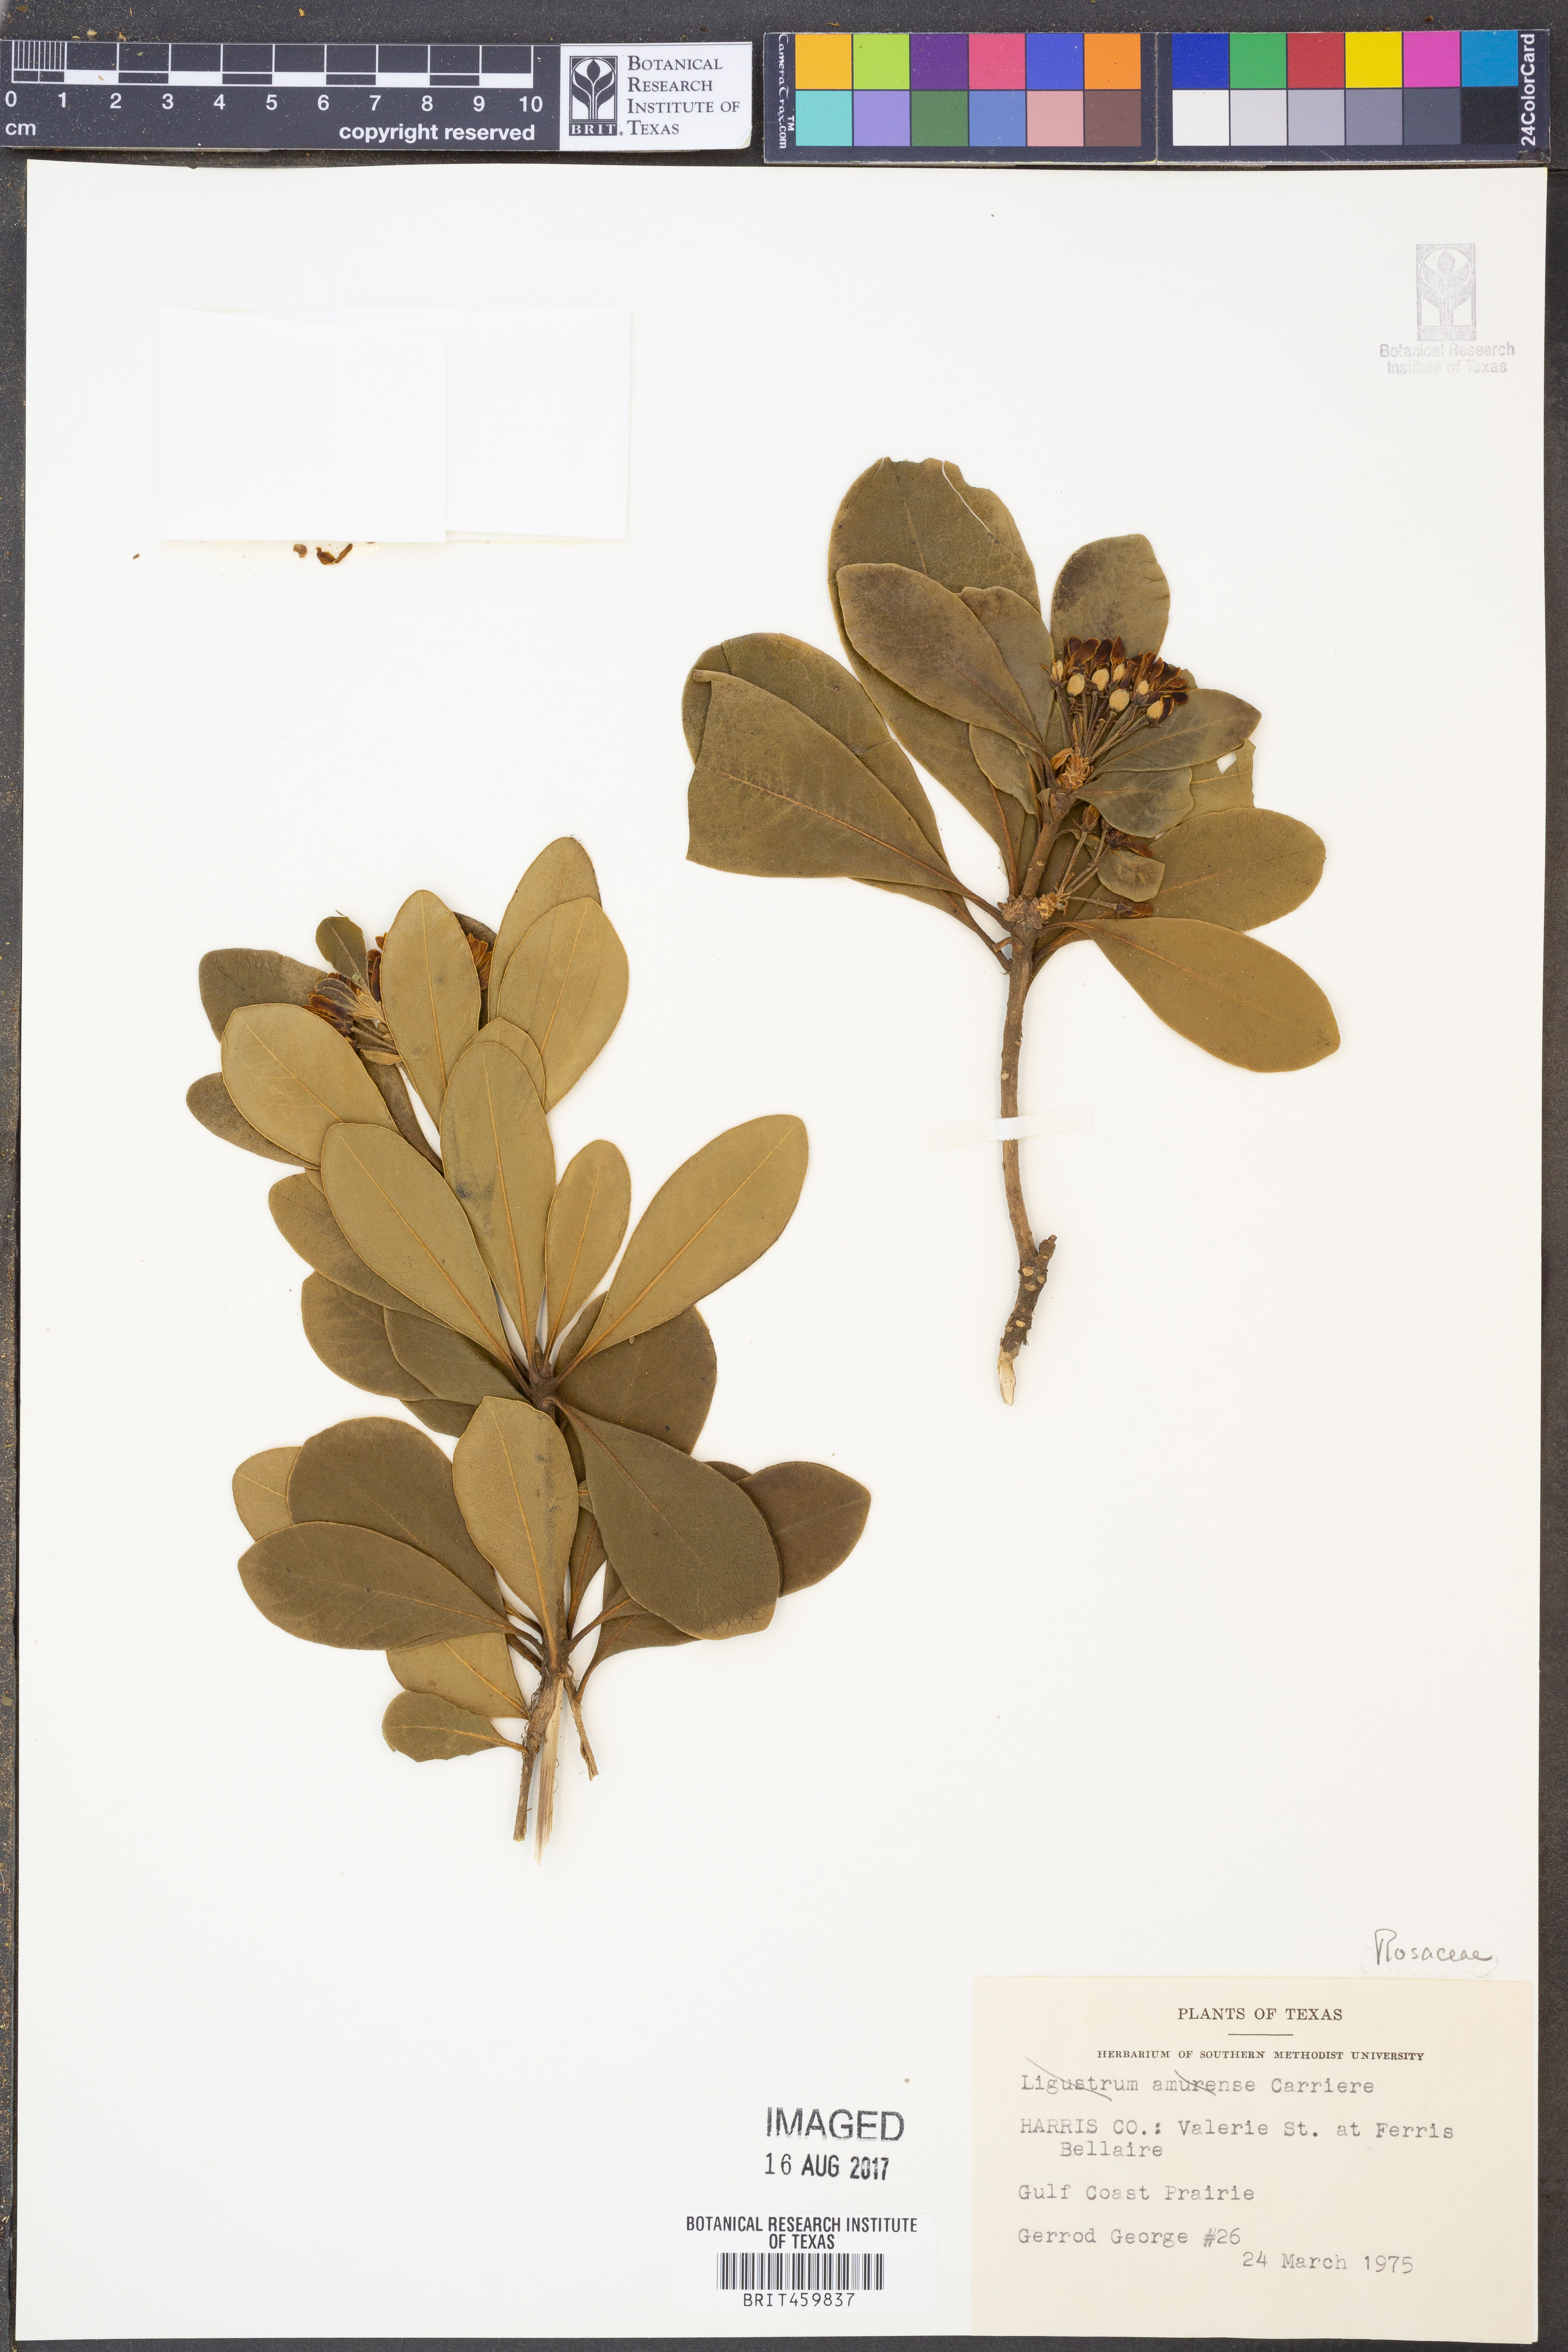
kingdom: Plantae
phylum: Tracheophyta
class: Magnoliopsida
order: Lamiales
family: Oleaceae
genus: Ligustrum
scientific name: Ligustrum obtusifolium
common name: Border privet
